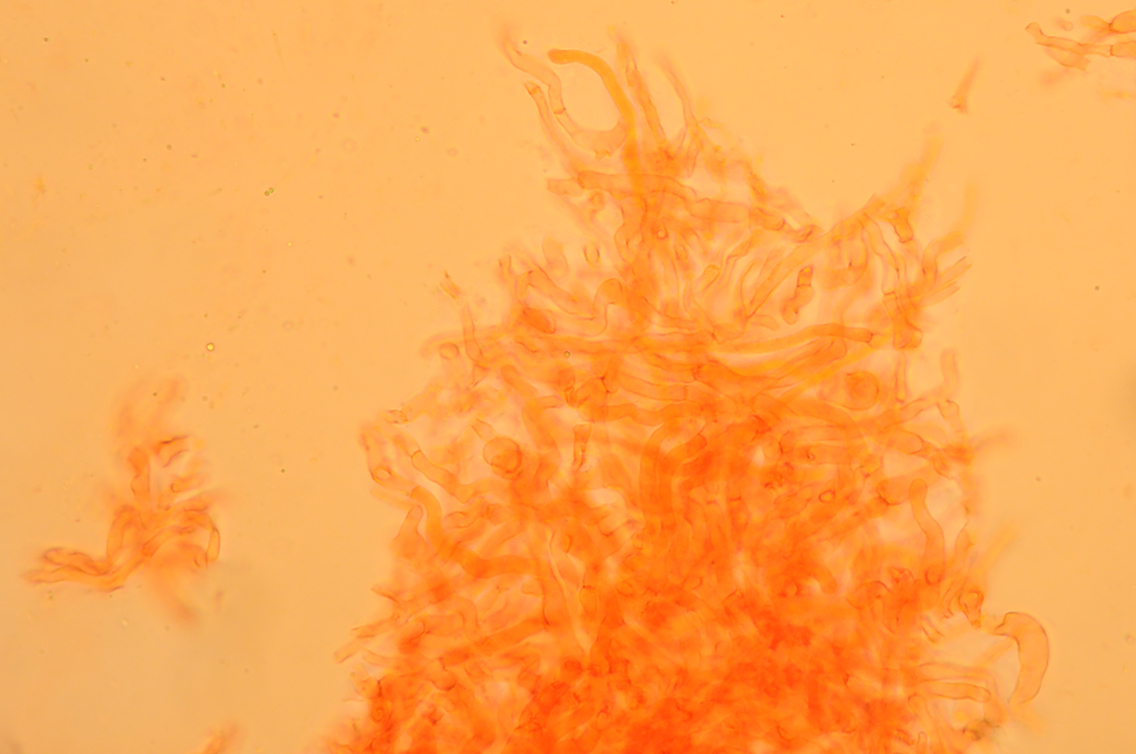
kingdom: Fungi
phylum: Basidiomycota
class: Agaricomycetes
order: Russulales
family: Russulaceae
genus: Russula
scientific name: Russula cremeoavellanea
